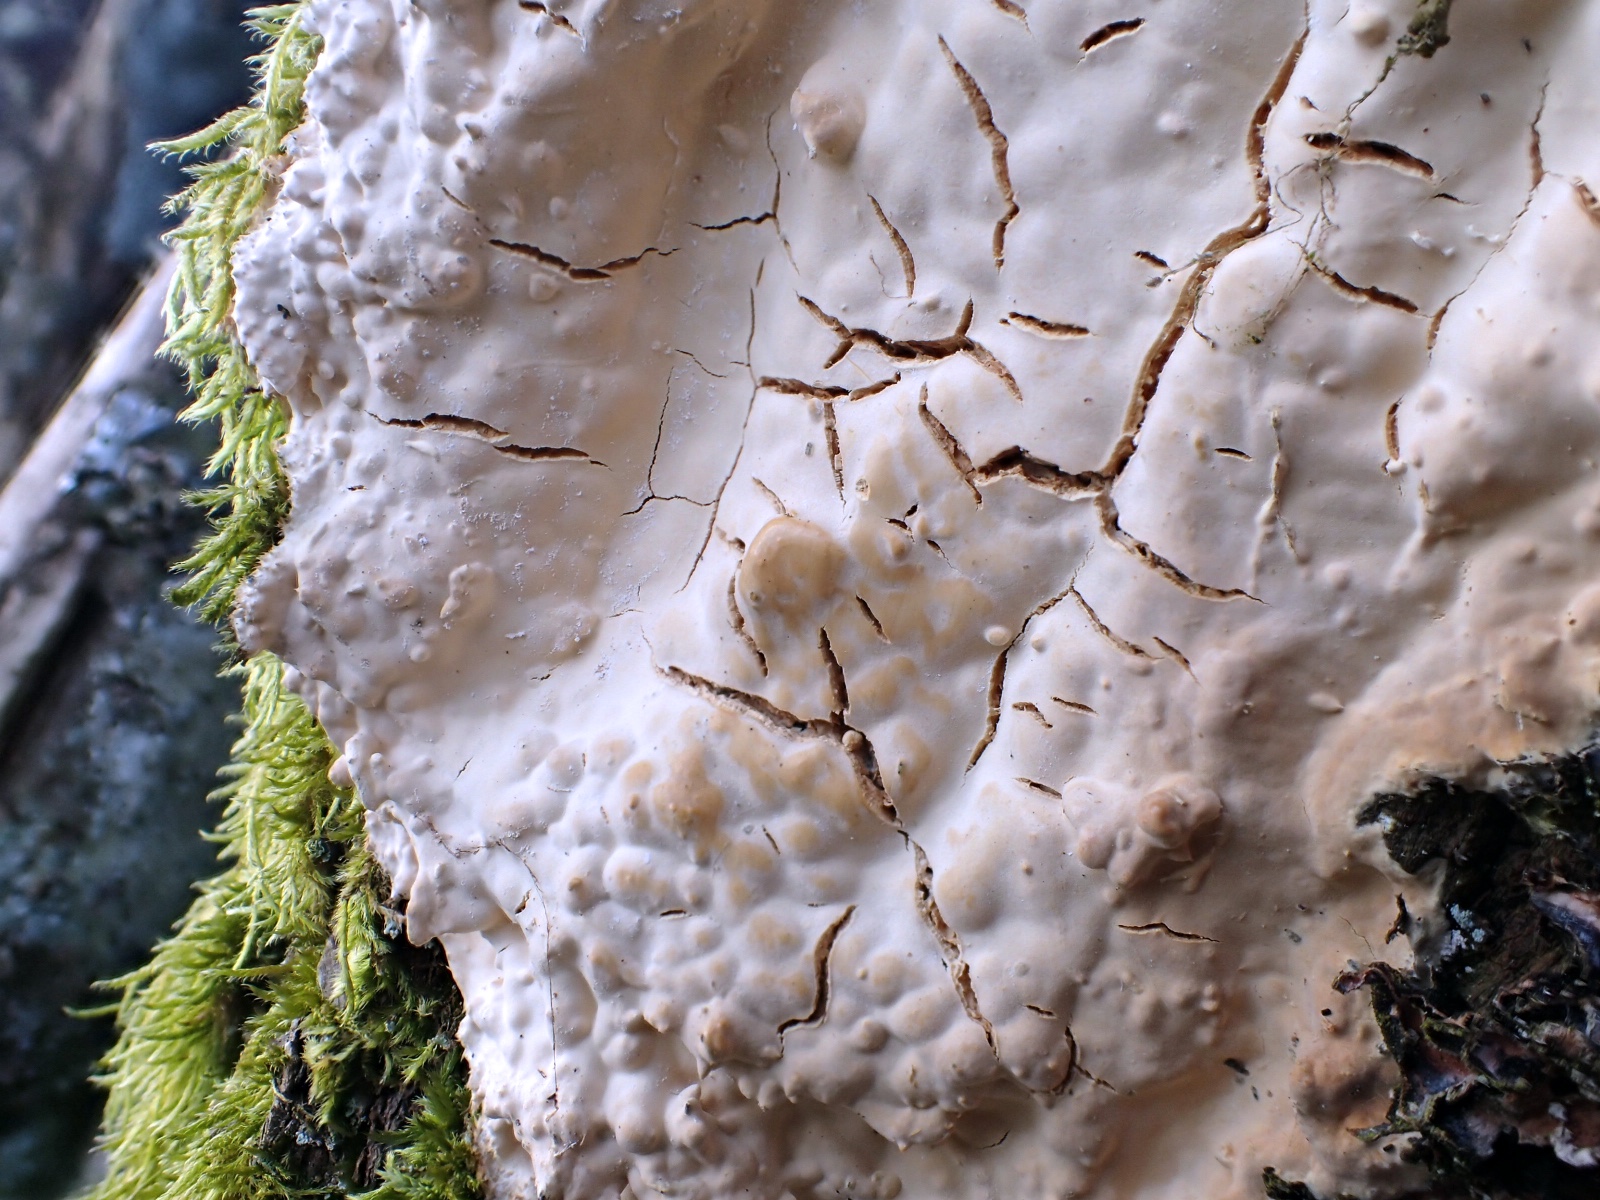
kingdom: Fungi
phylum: Basidiomycota
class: Agaricomycetes
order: Corticiales
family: Corticiaceae
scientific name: Corticiaceae
